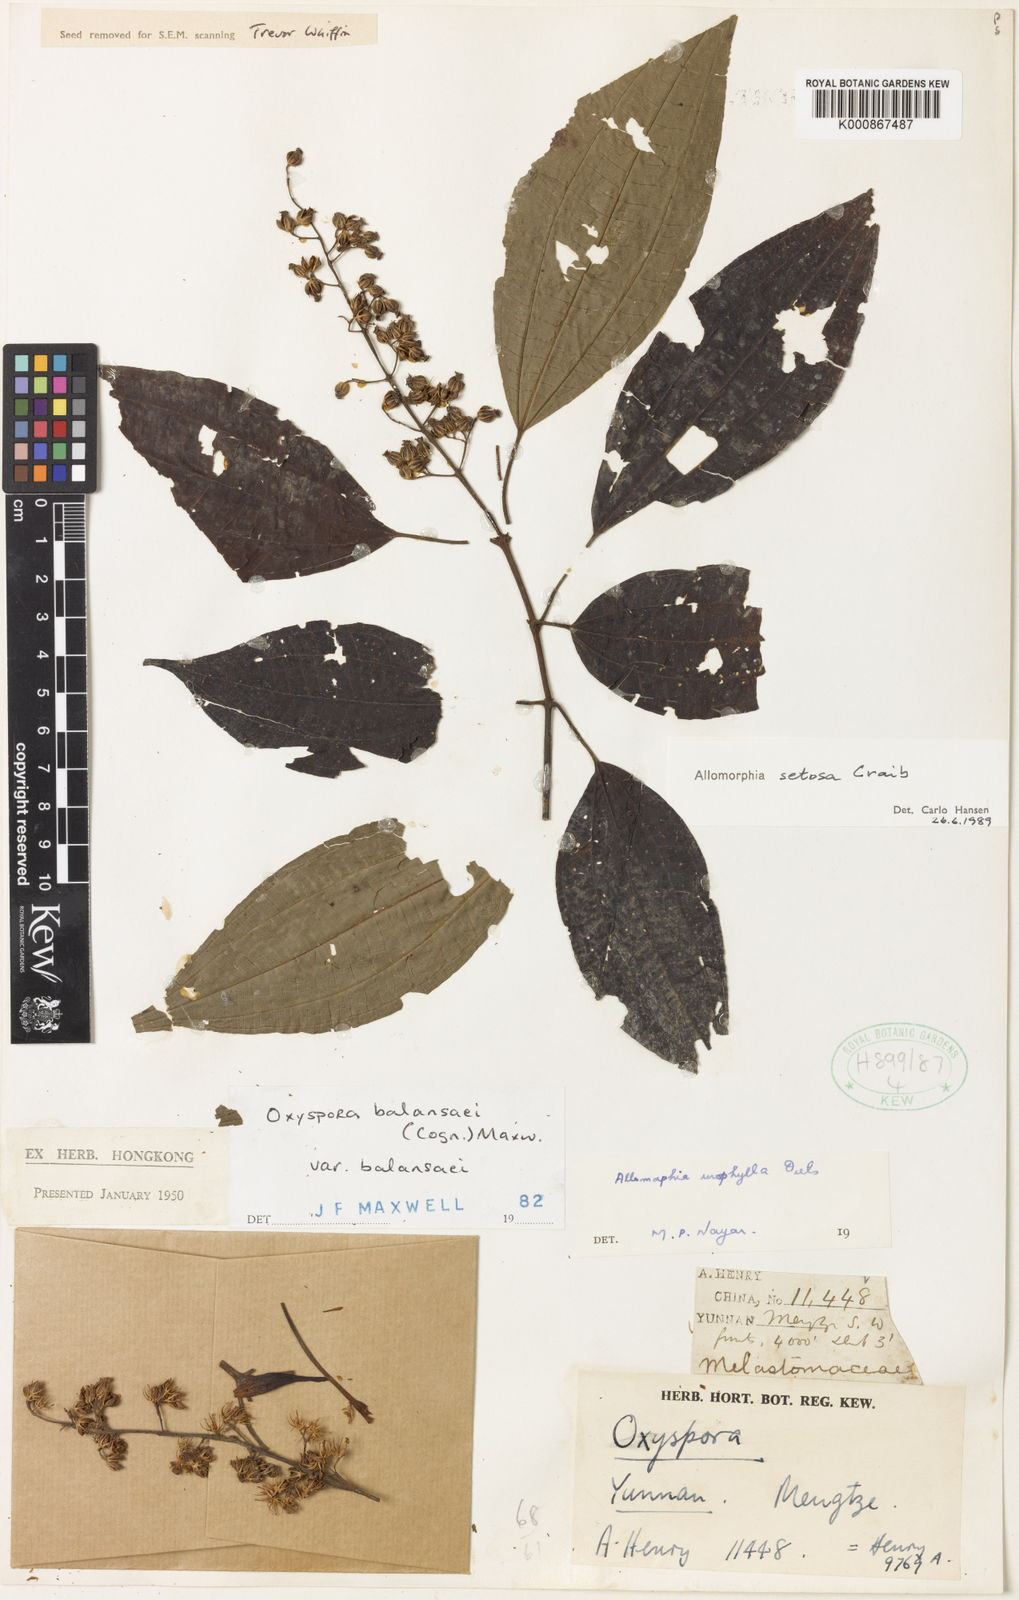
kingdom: Plantae
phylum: Tracheophyta
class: Magnoliopsida
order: Myrtales
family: Melastomataceae
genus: Allomorphia
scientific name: Allomorphia howellii
